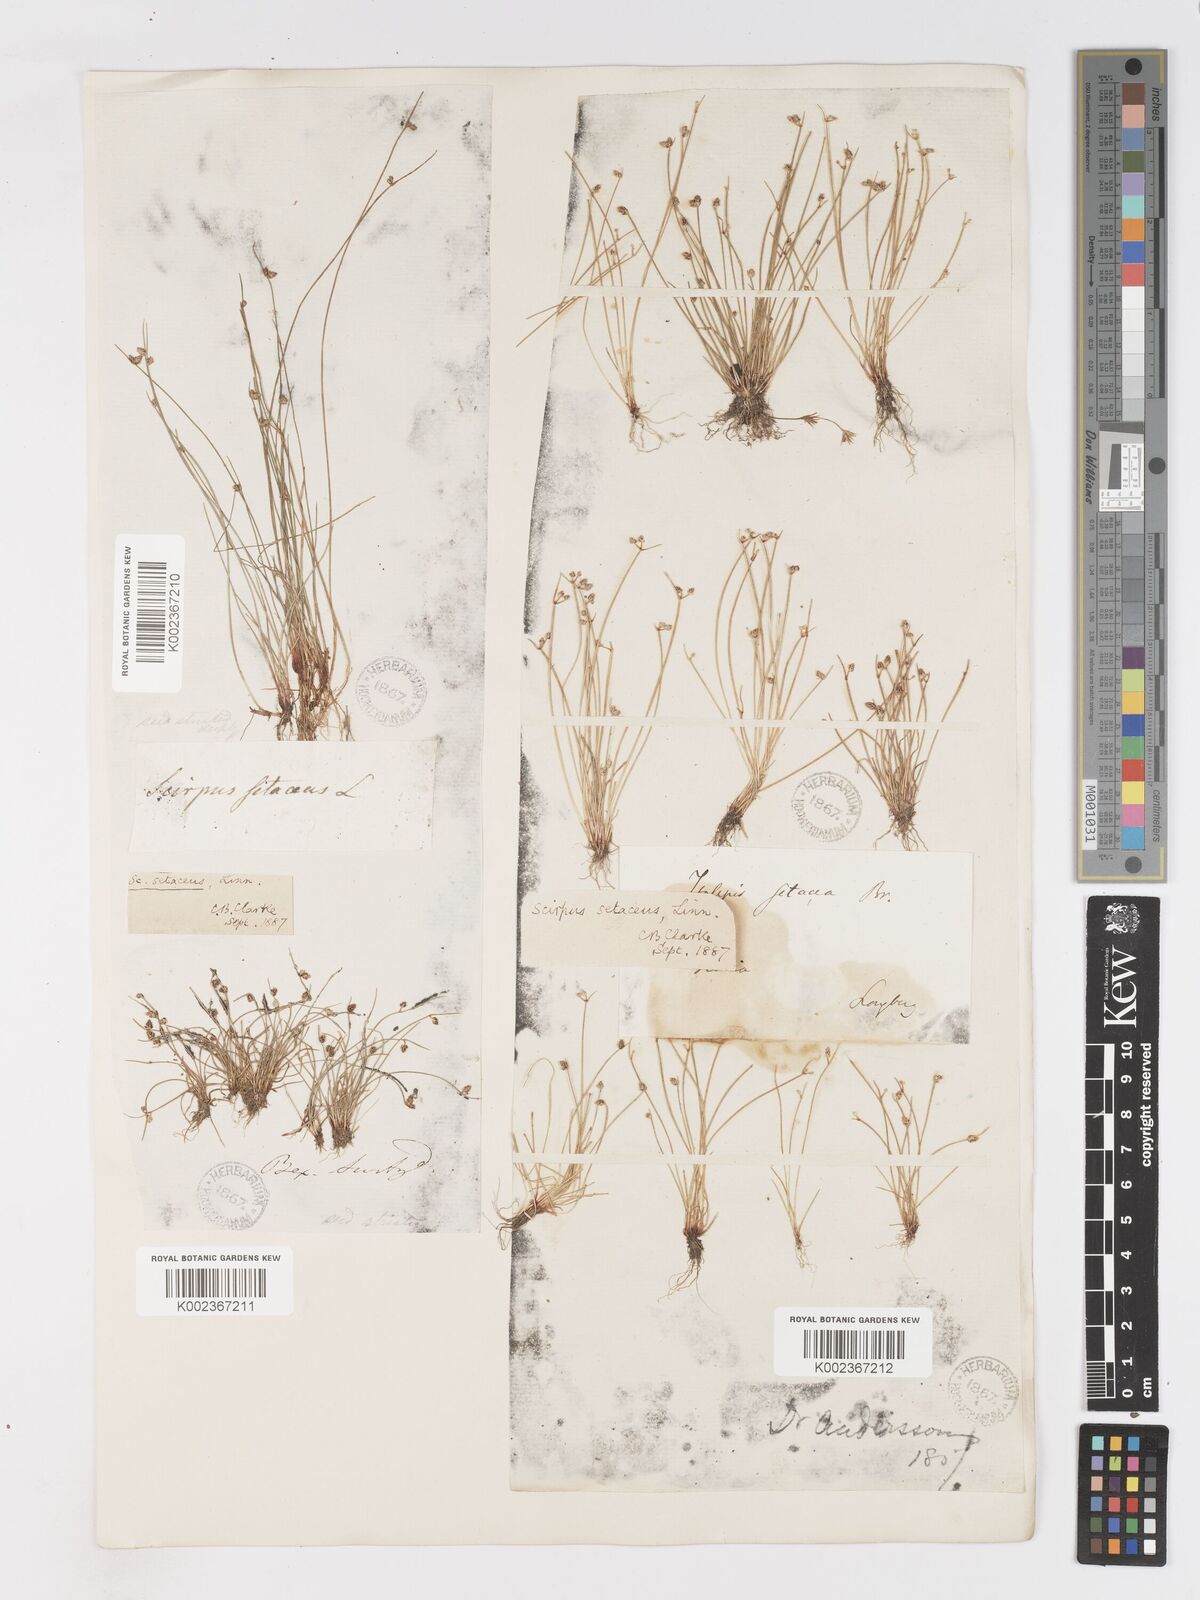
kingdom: Plantae
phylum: Tracheophyta
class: Liliopsida
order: Poales
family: Cyperaceae
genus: Isolepis
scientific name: Isolepis setacea
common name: Bristle club-rush
